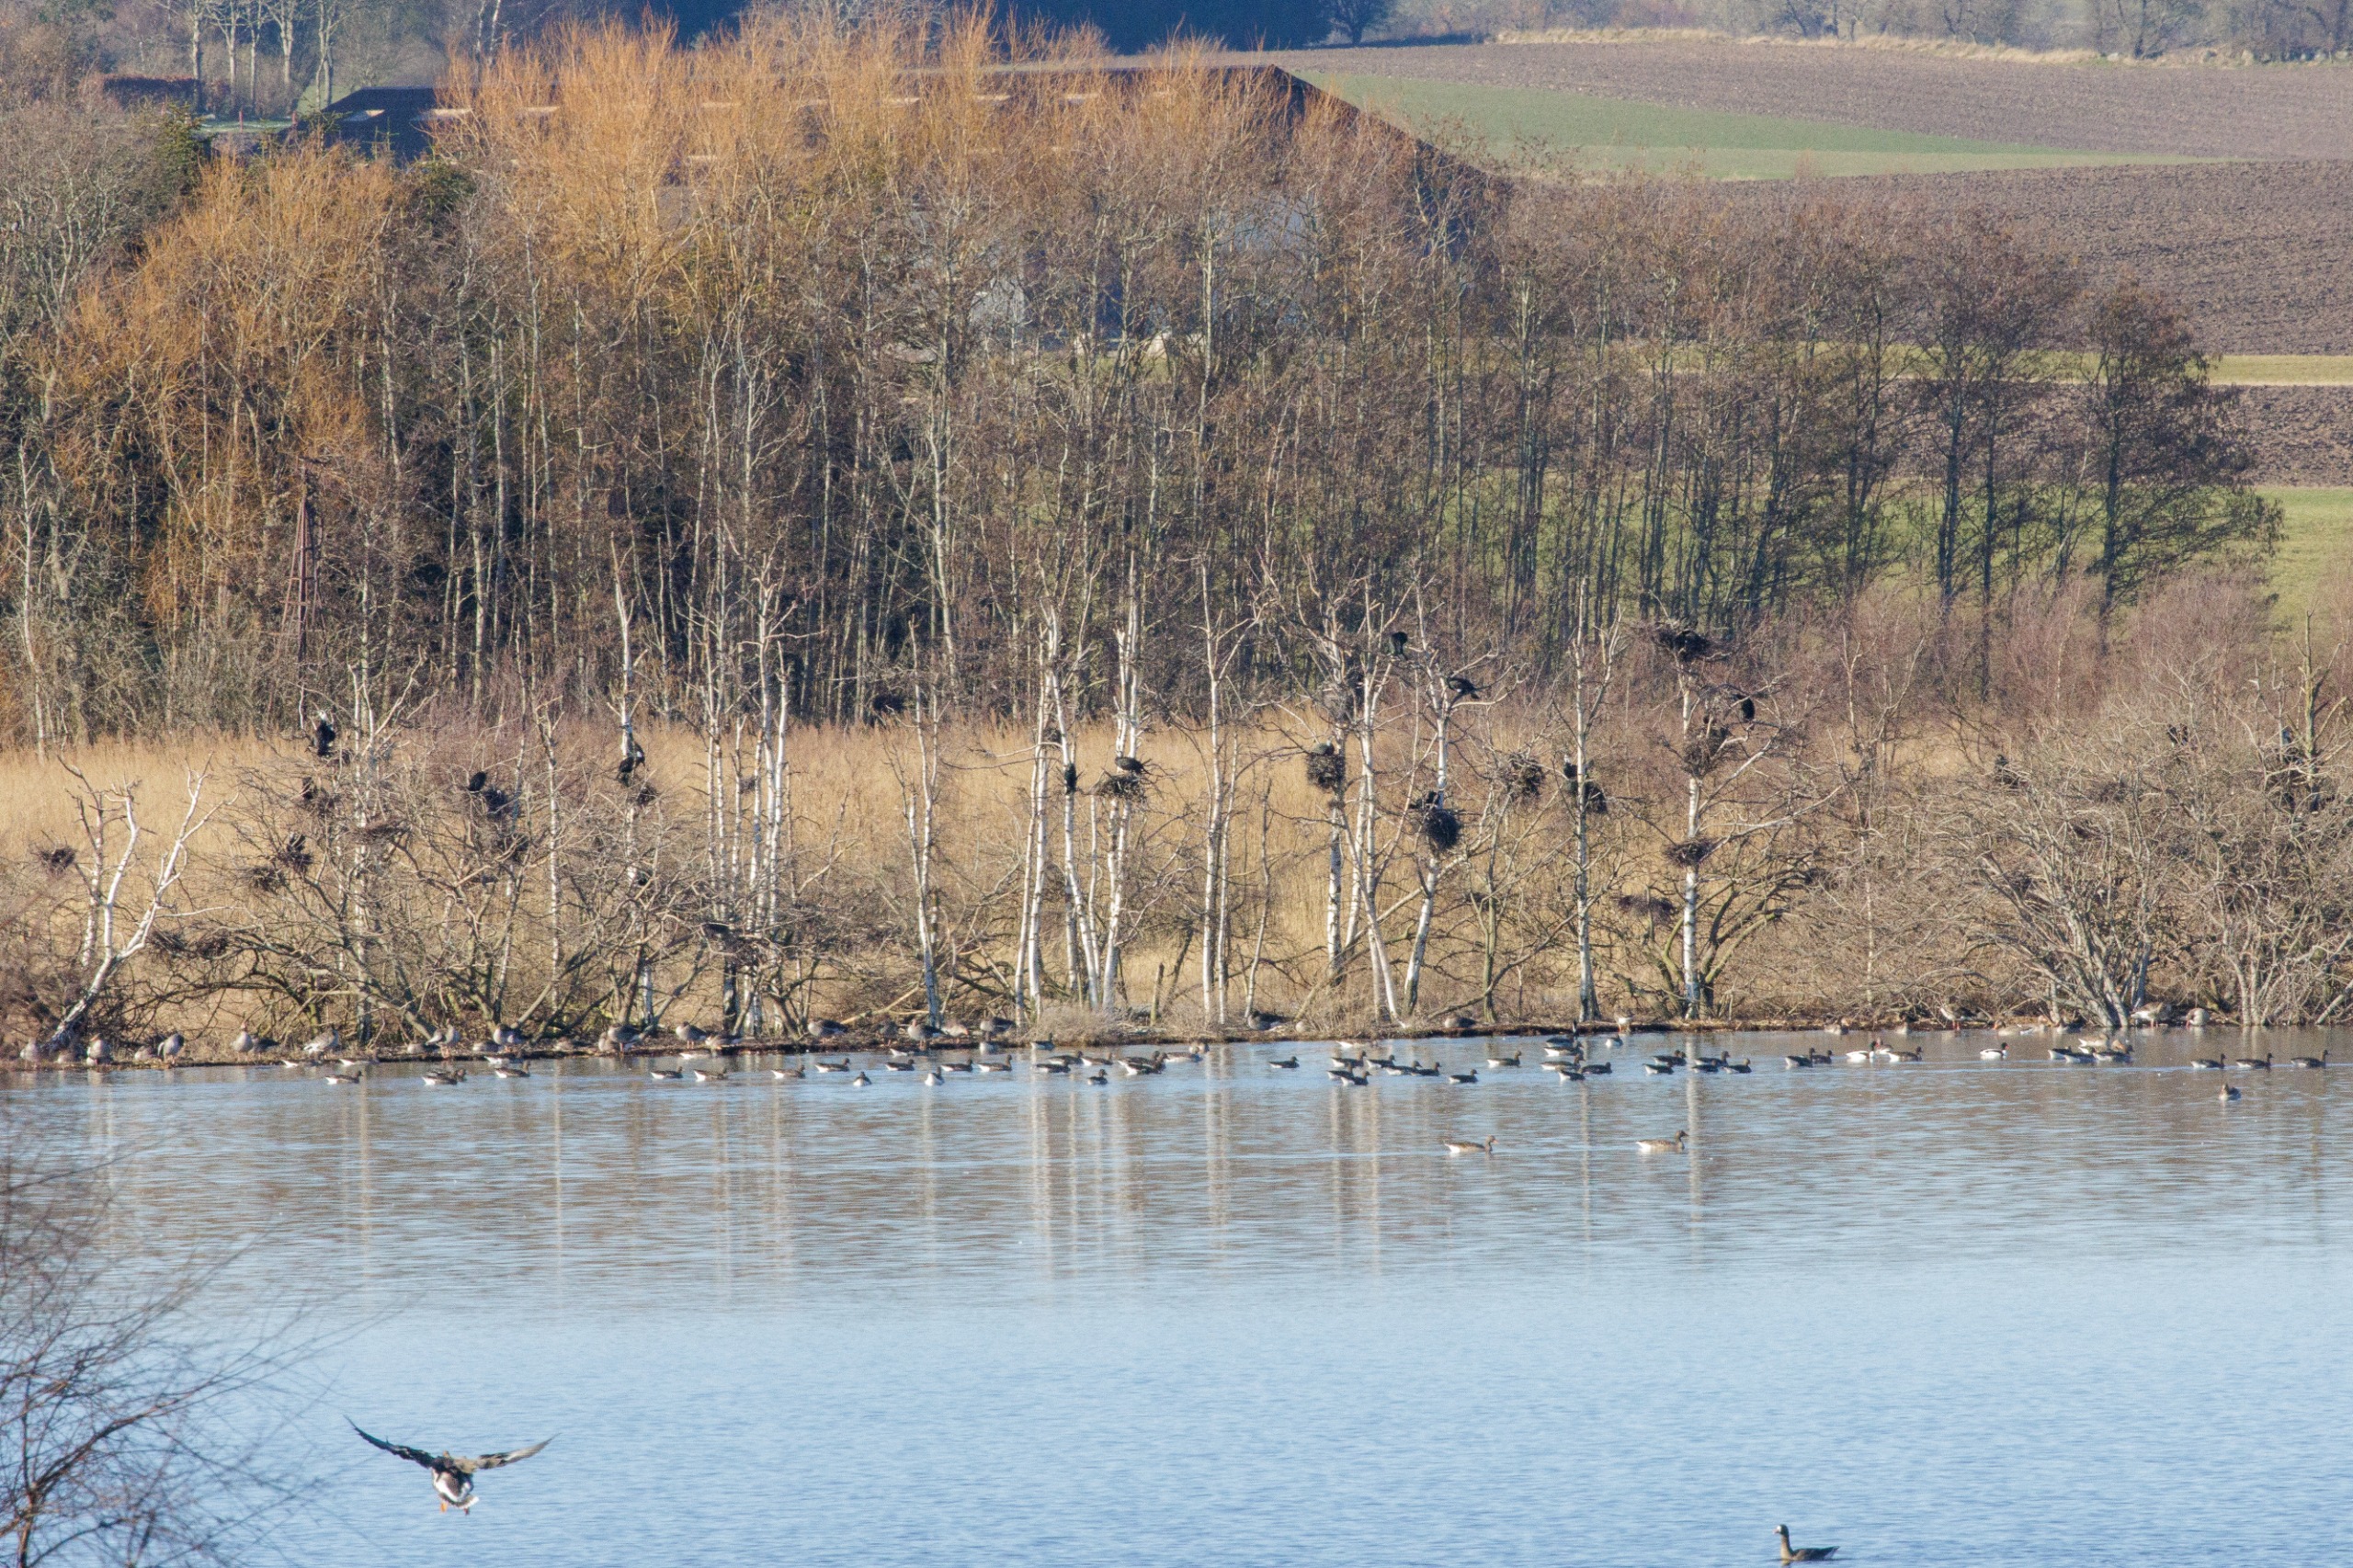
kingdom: Animalia
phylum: Chordata
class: Aves
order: Suliformes
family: Phalacrocoracidae
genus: Phalacrocorax
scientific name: Phalacrocorax carbo
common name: Skarv
